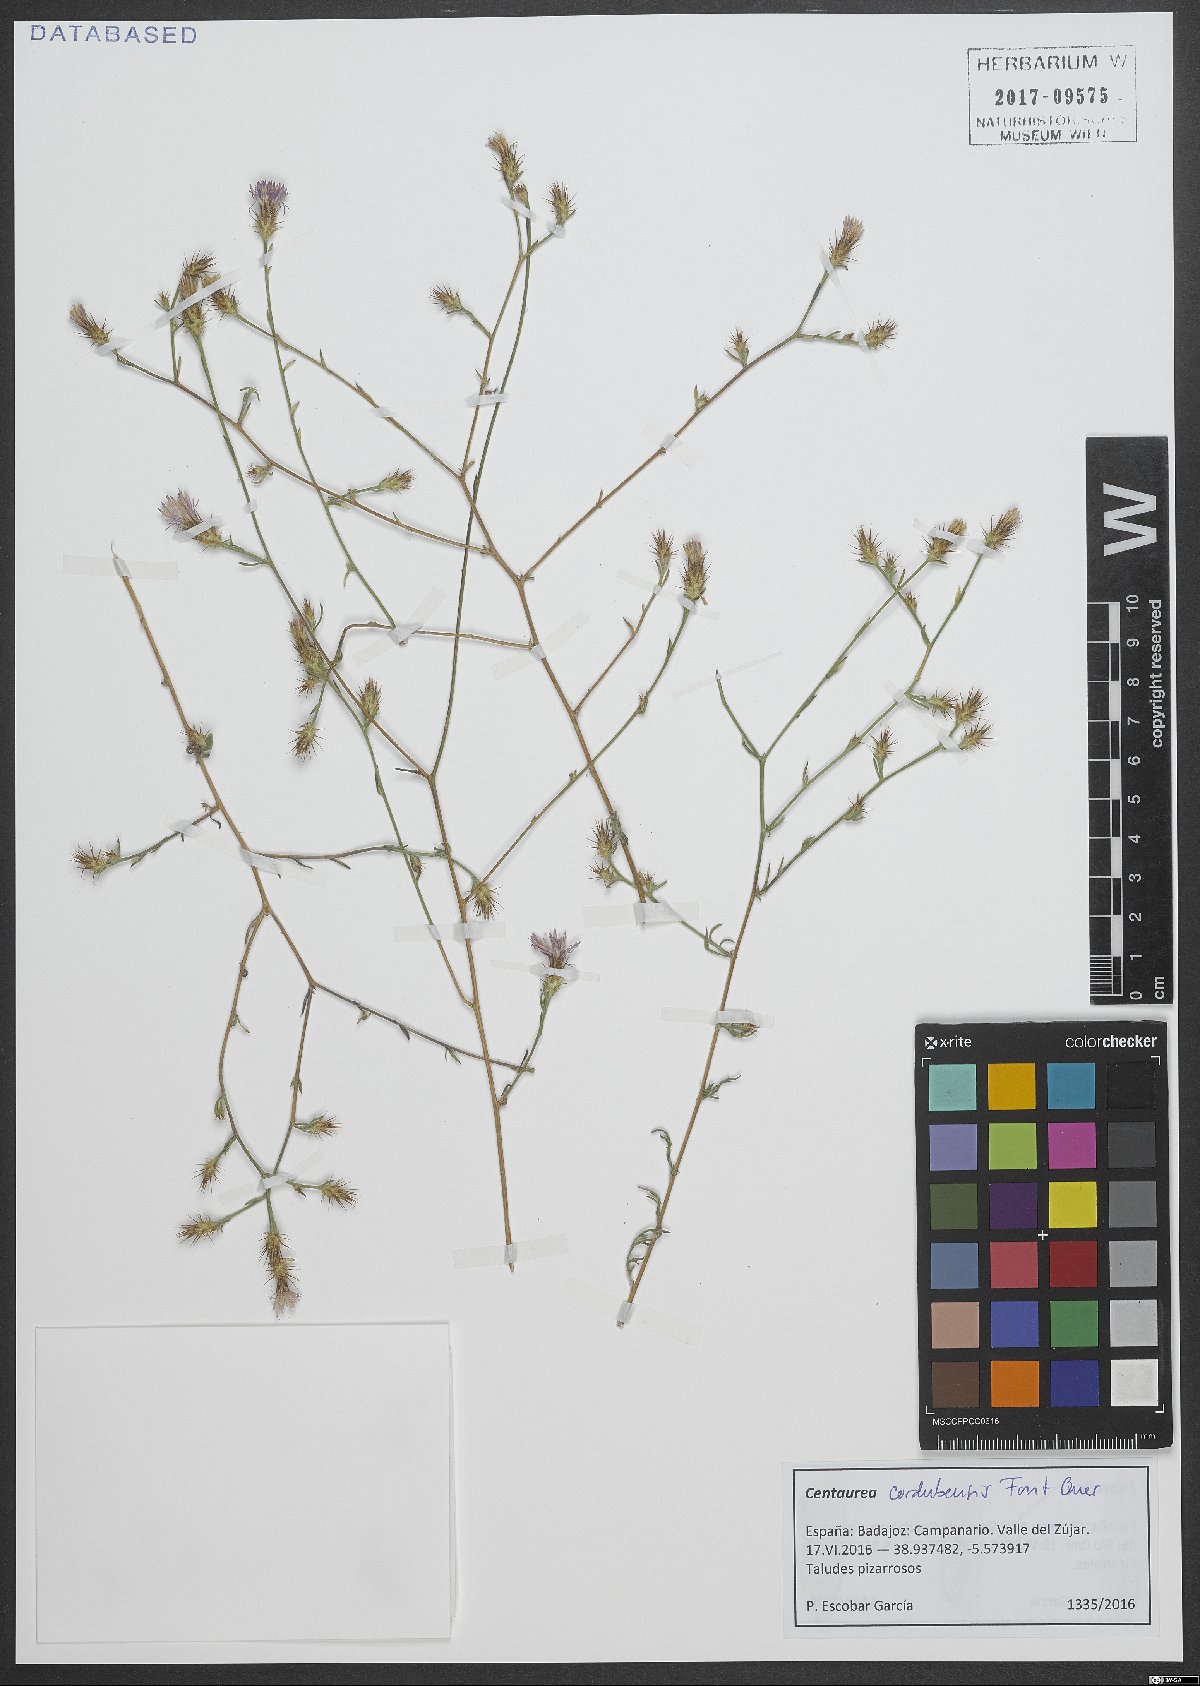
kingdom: Plantae
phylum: Tracheophyta
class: Magnoliopsida
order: Asterales
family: Asteraceae
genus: Centaurea
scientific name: Centaurea cordubensis
